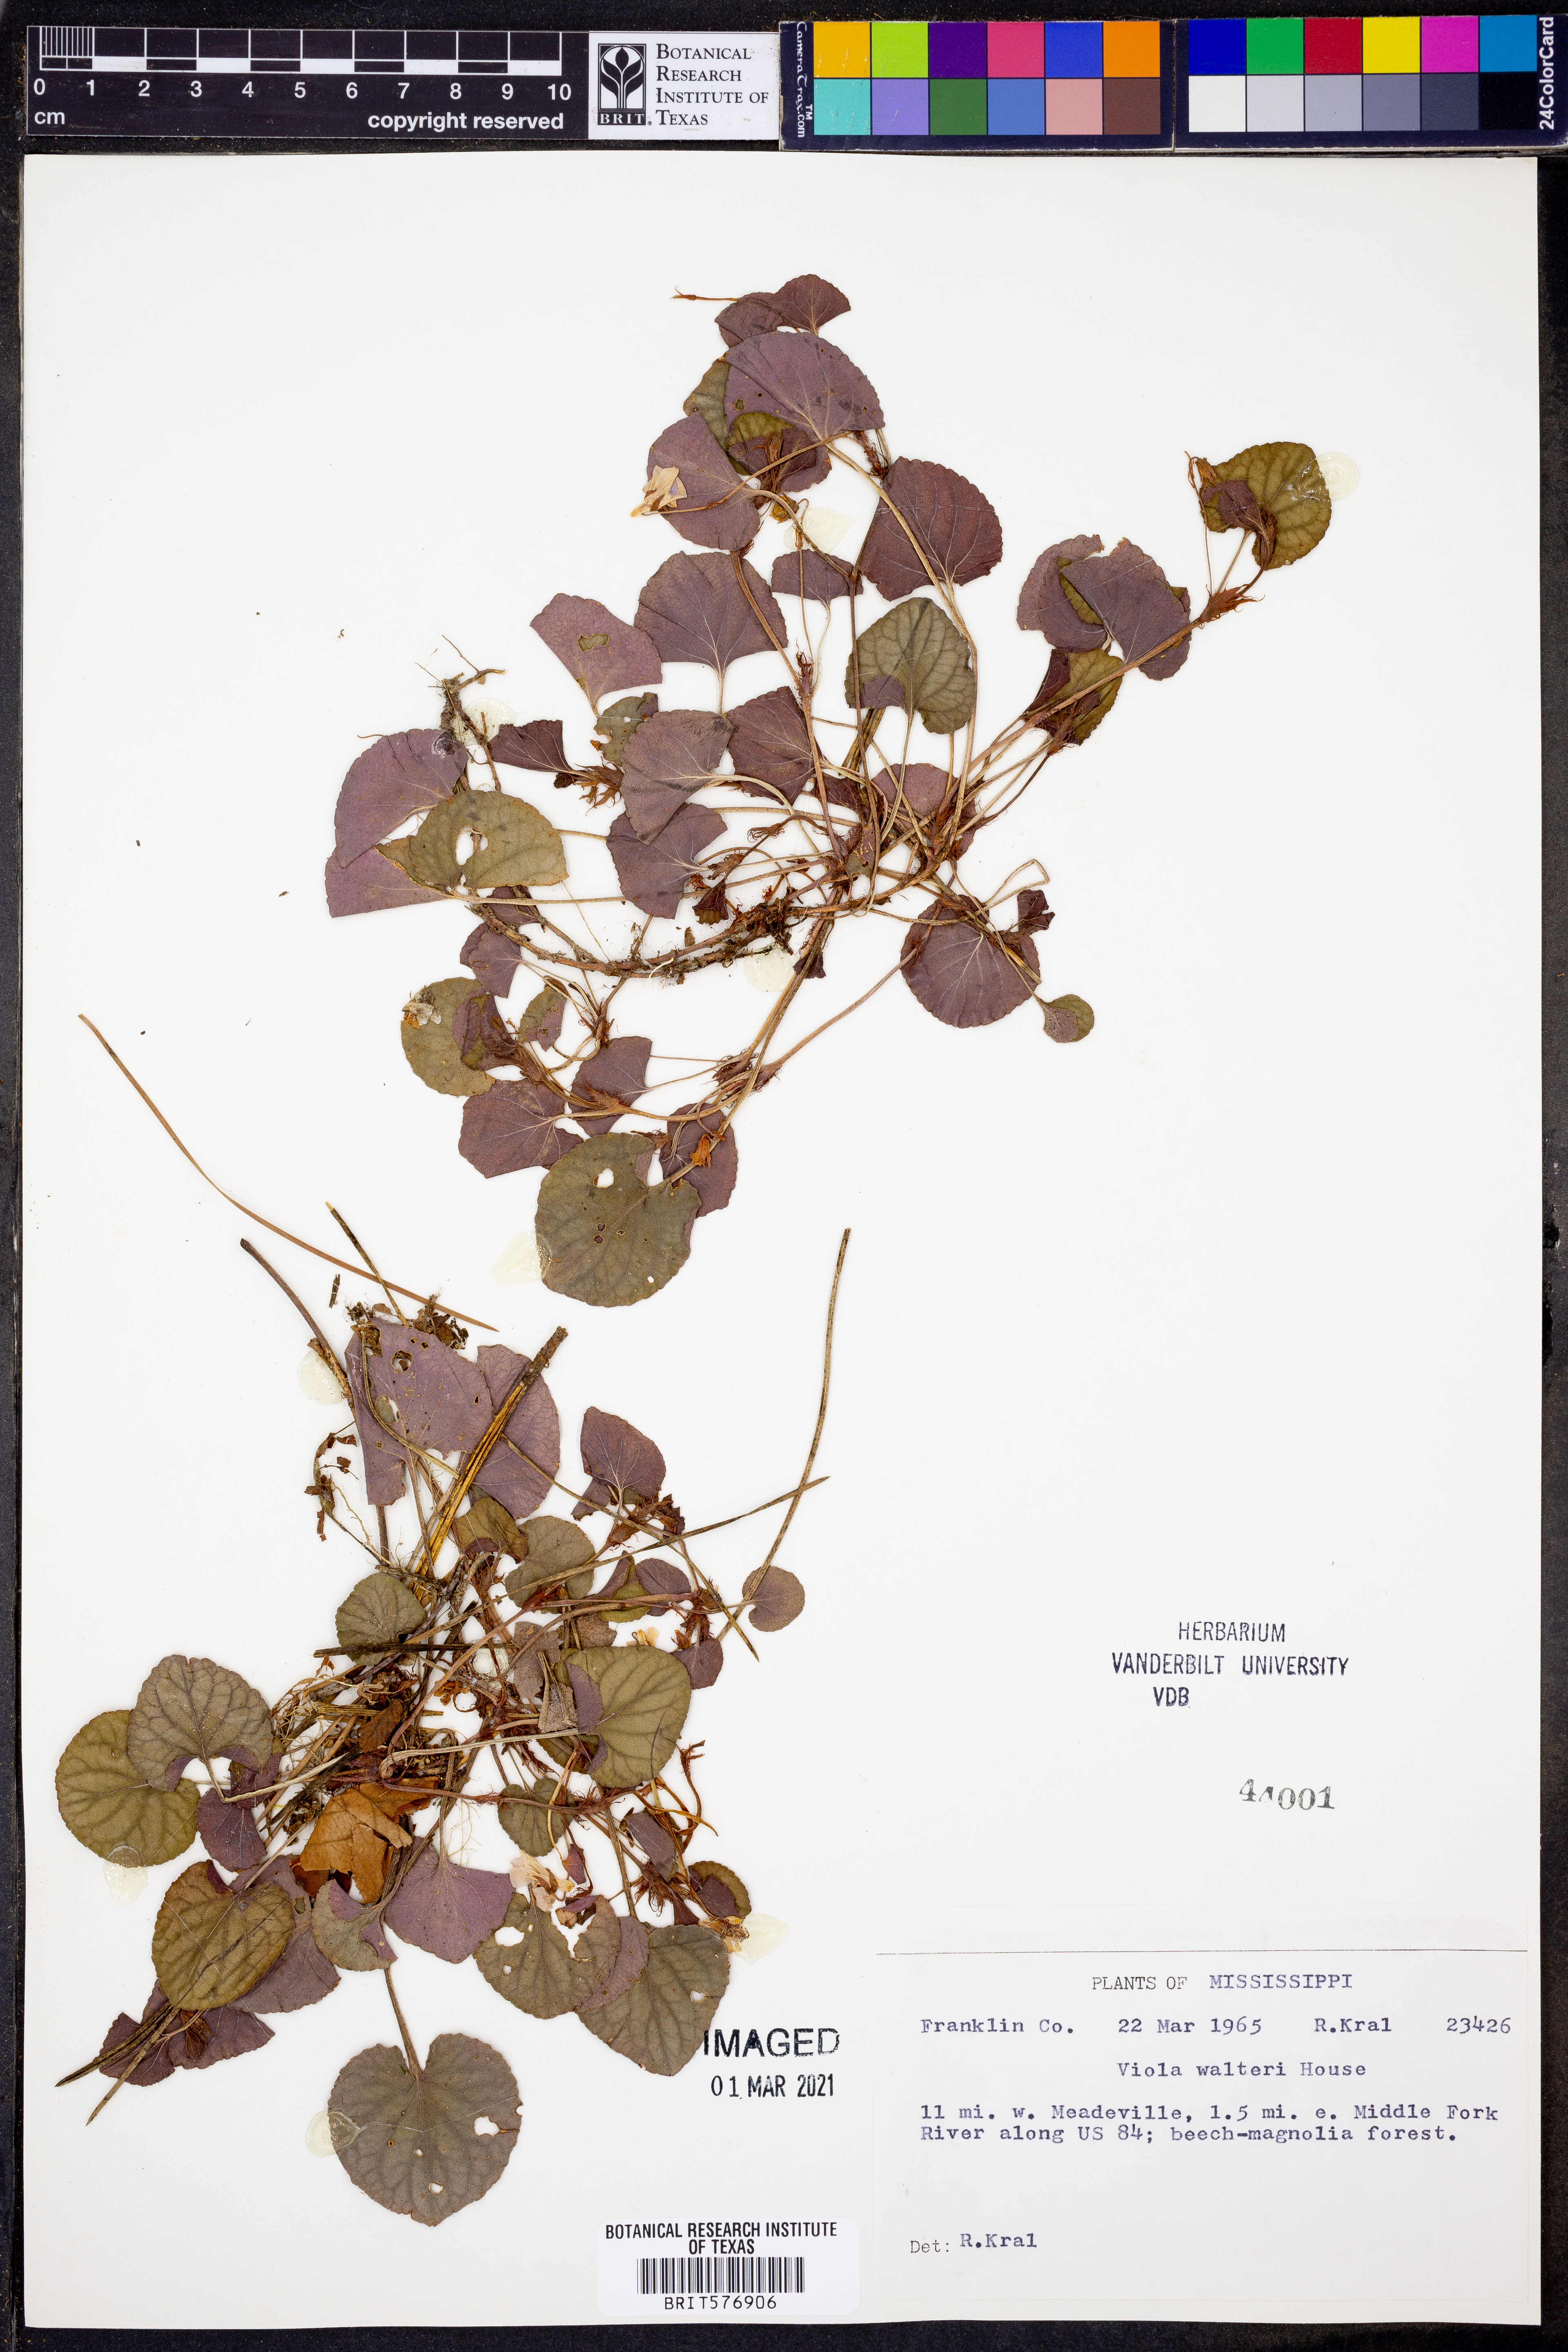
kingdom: Plantae
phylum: Tracheophyta
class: Magnoliopsida
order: Malpighiales
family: Violaceae
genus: Viola
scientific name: Viola walteri
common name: Prostrate southern violet
